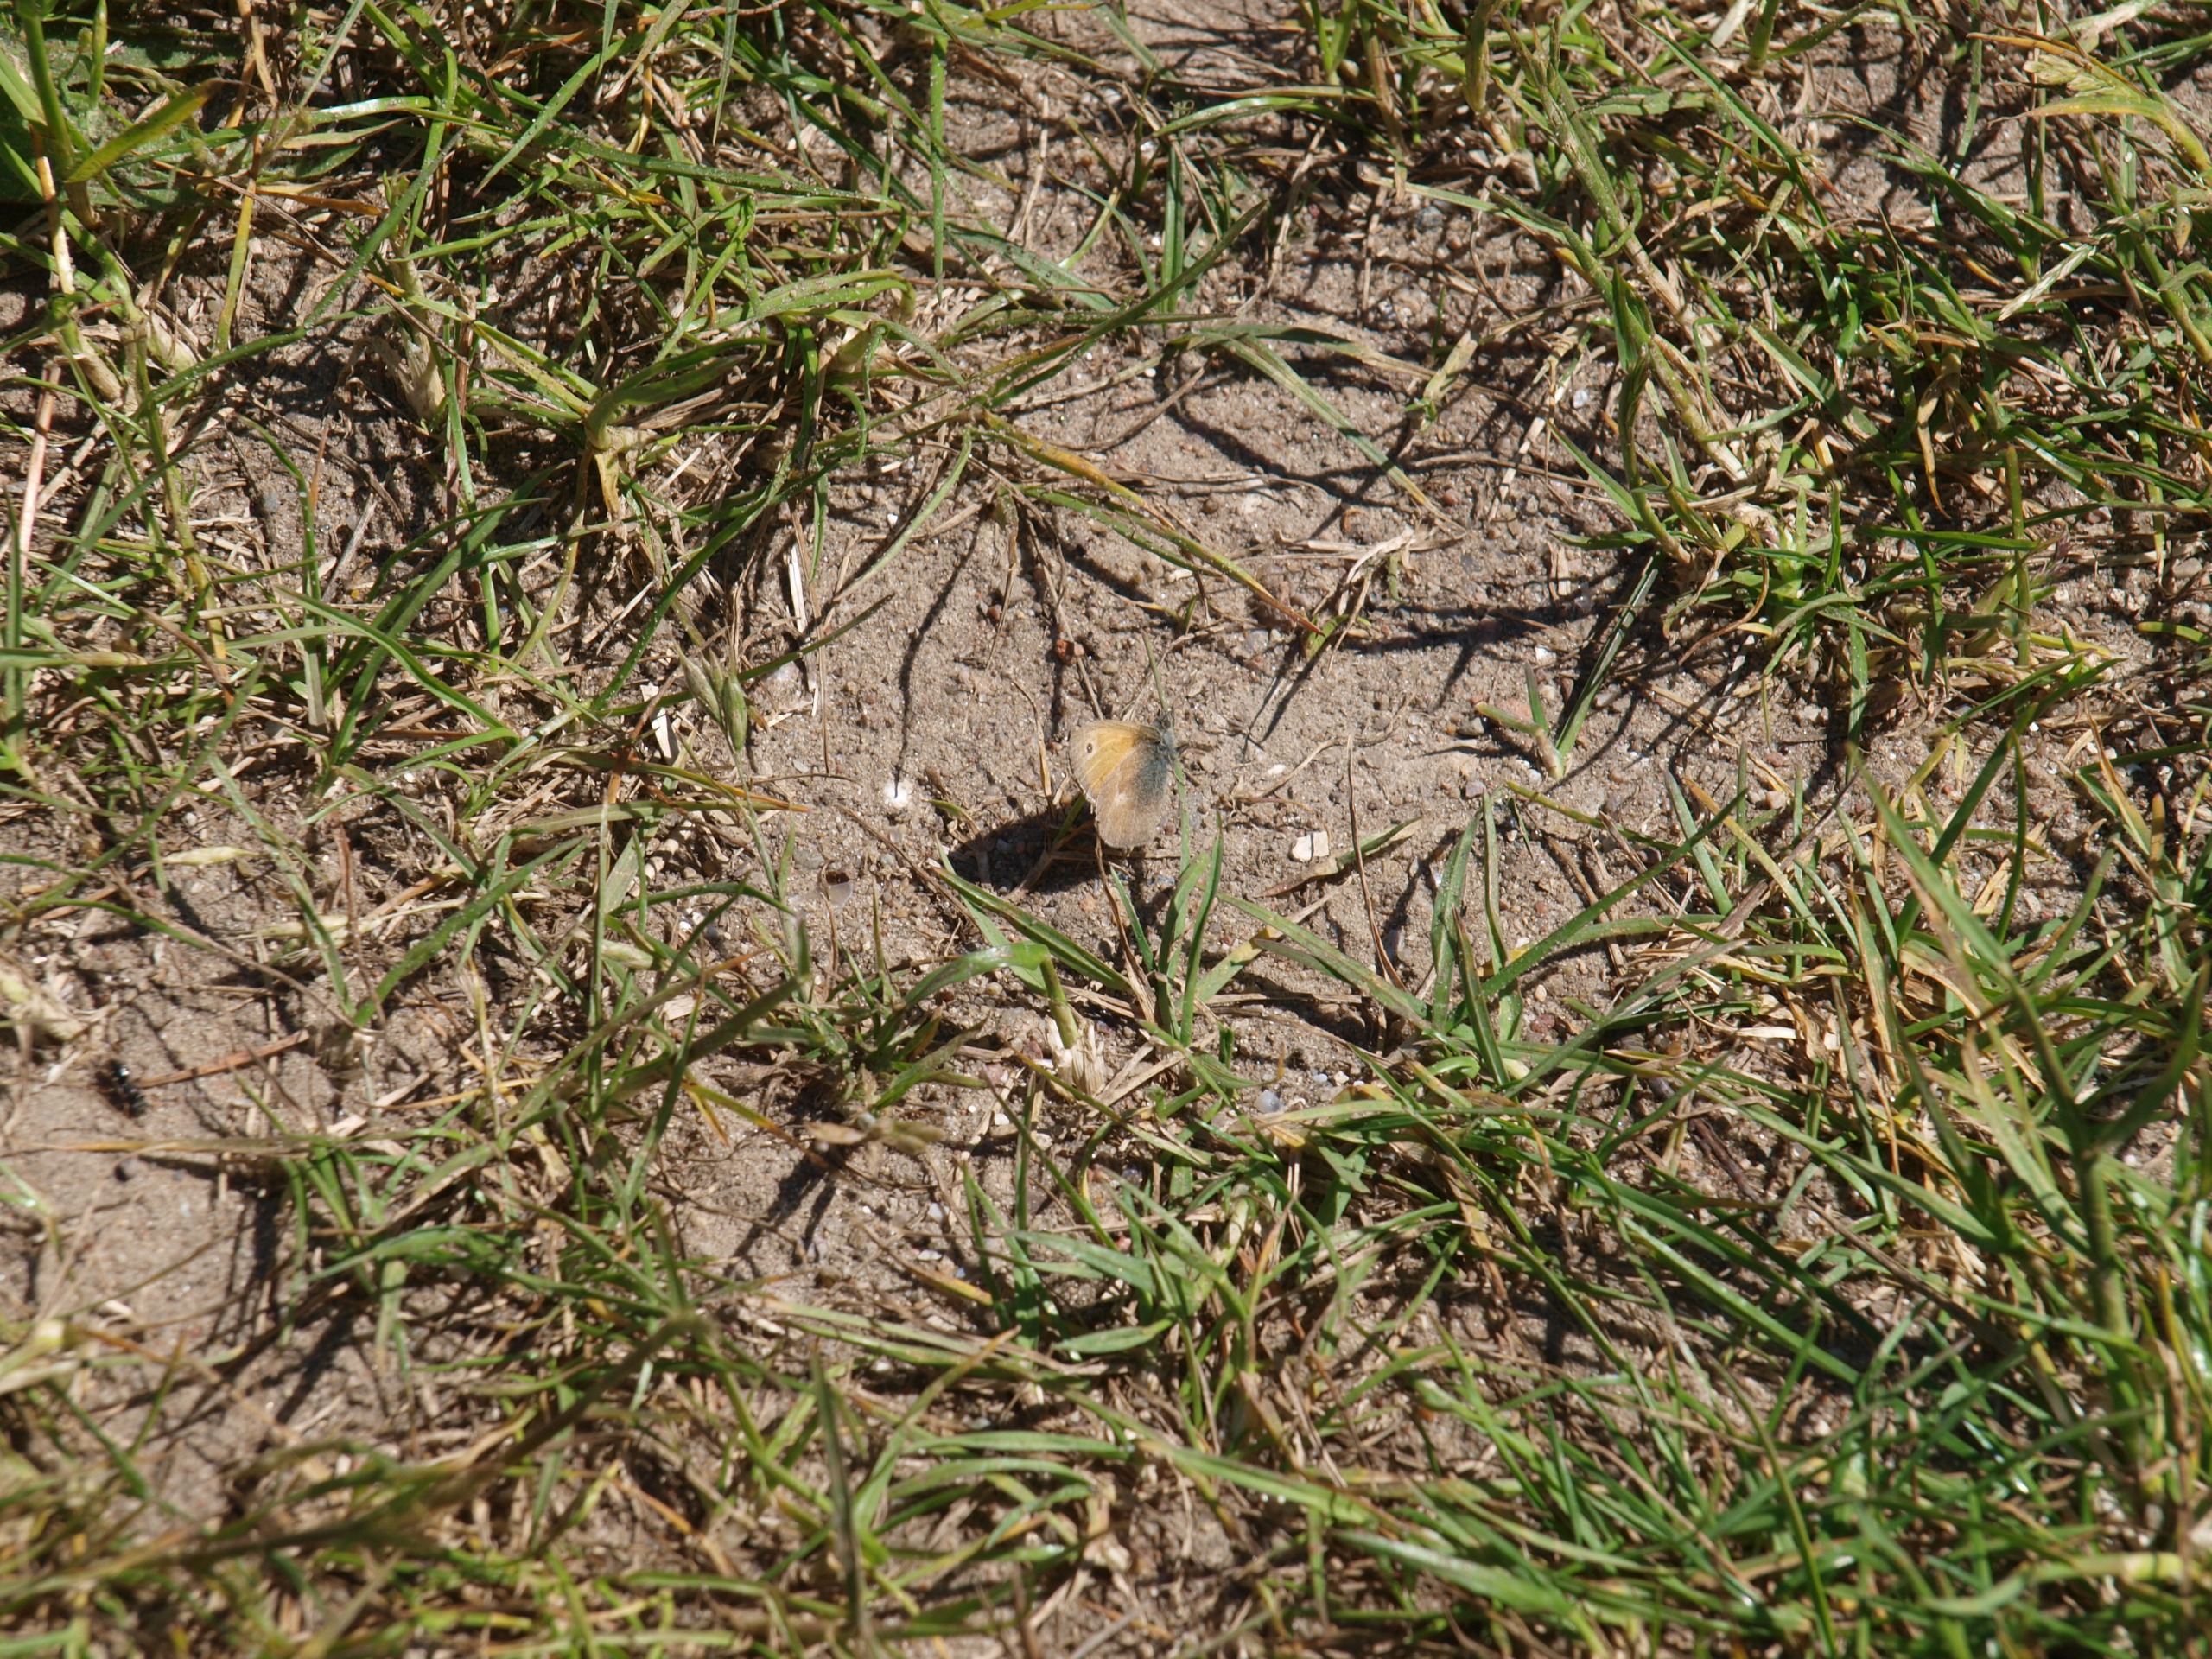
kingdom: Animalia
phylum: Arthropoda
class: Insecta
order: Lepidoptera
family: Nymphalidae
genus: Coenonympha
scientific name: Coenonympha pamphilus
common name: Okkergul randøje
